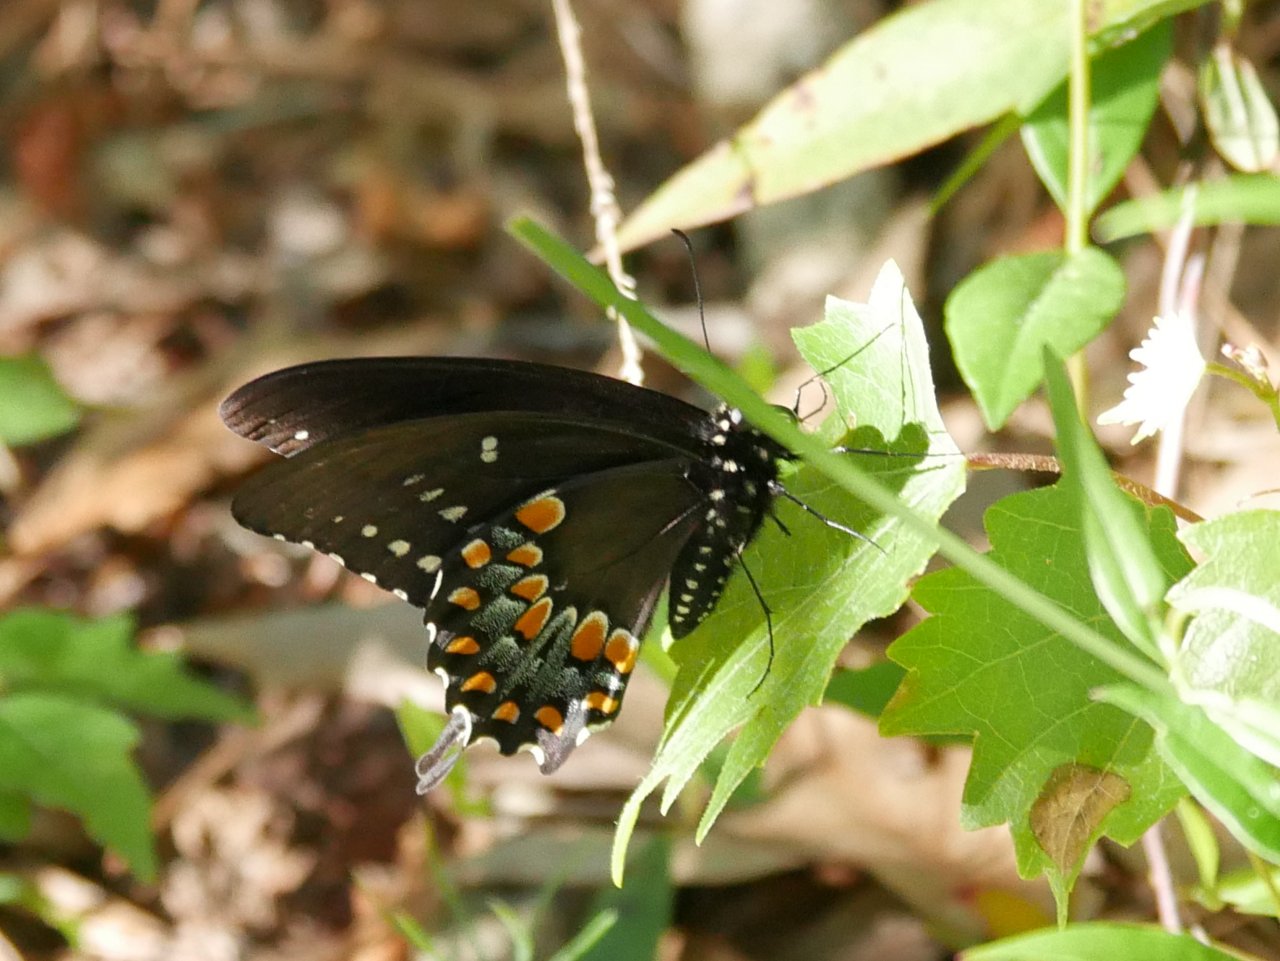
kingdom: Animalia
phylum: Arthropoda
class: Insecta
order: Lepidoptera
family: Papilionidae
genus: Pterourus
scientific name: Pterourus troilus
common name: Spicebush Swallowtail
